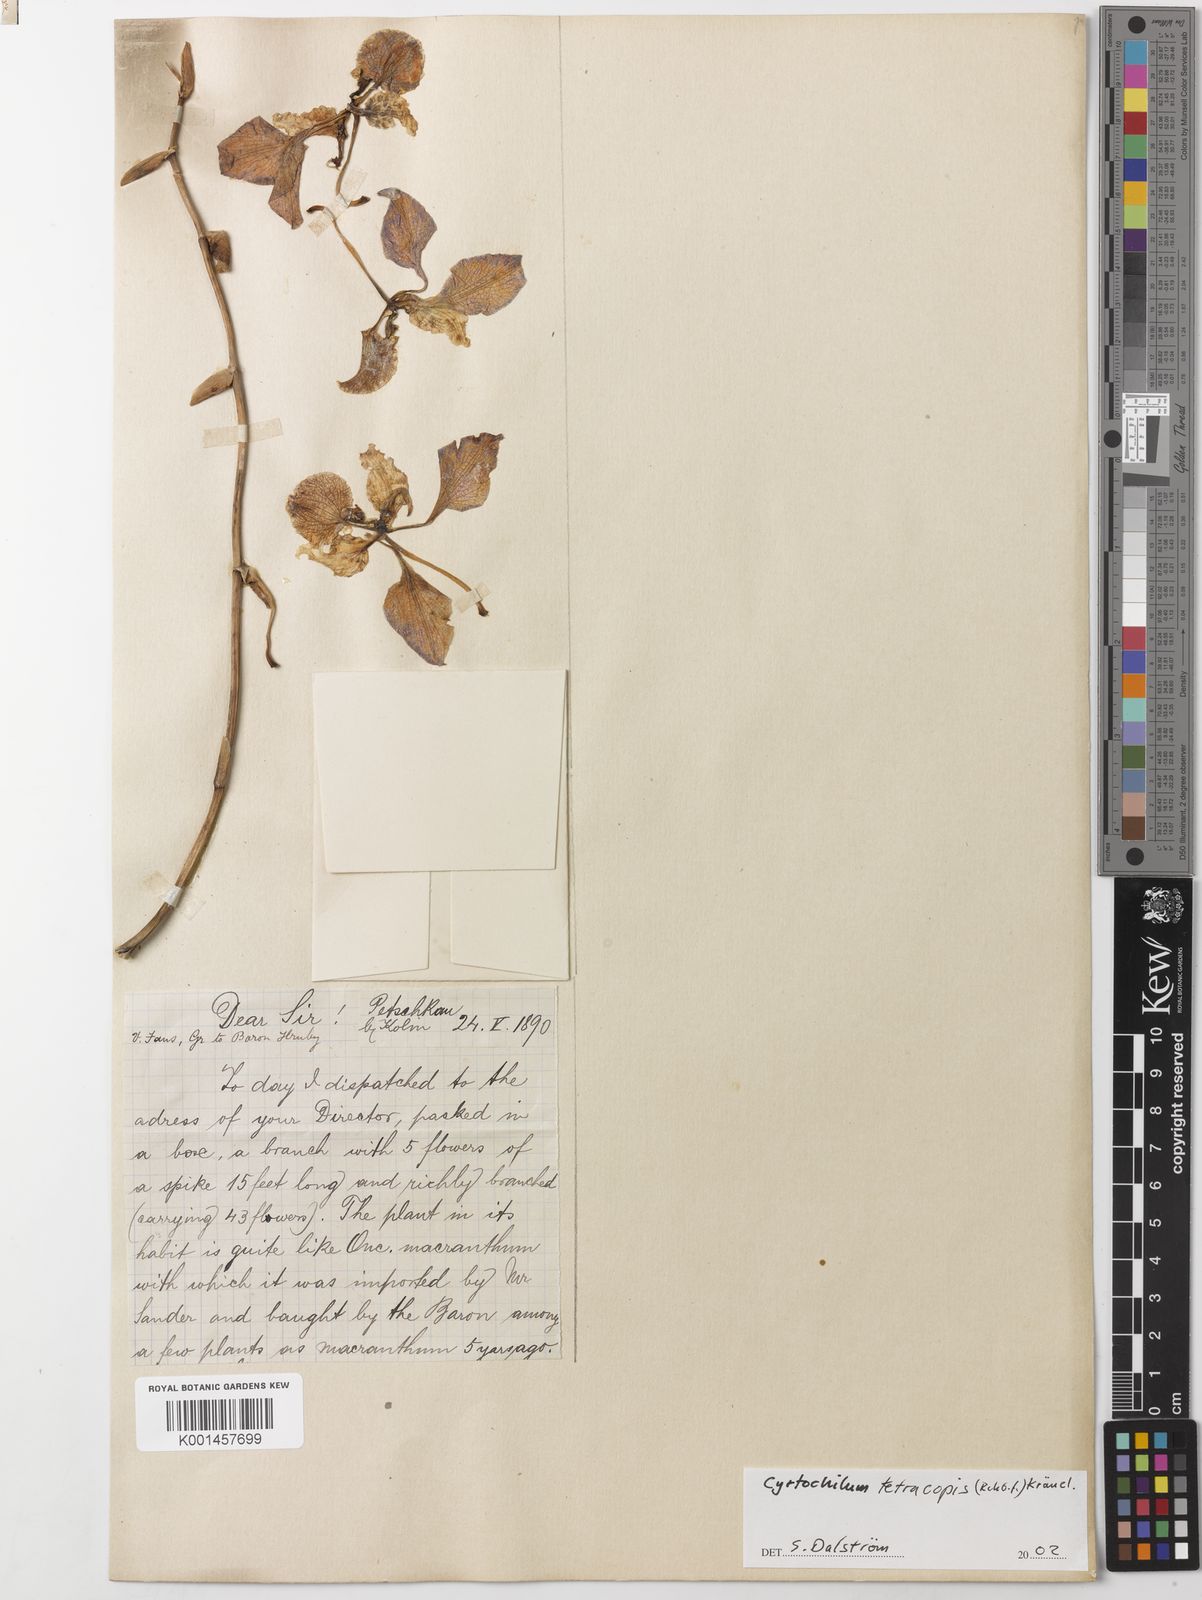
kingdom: Plantae
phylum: Tracheophyta
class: Liliopsida
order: Asparagales
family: Orchidaceae
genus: Cyrtochilum
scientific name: Cyrtochilum
